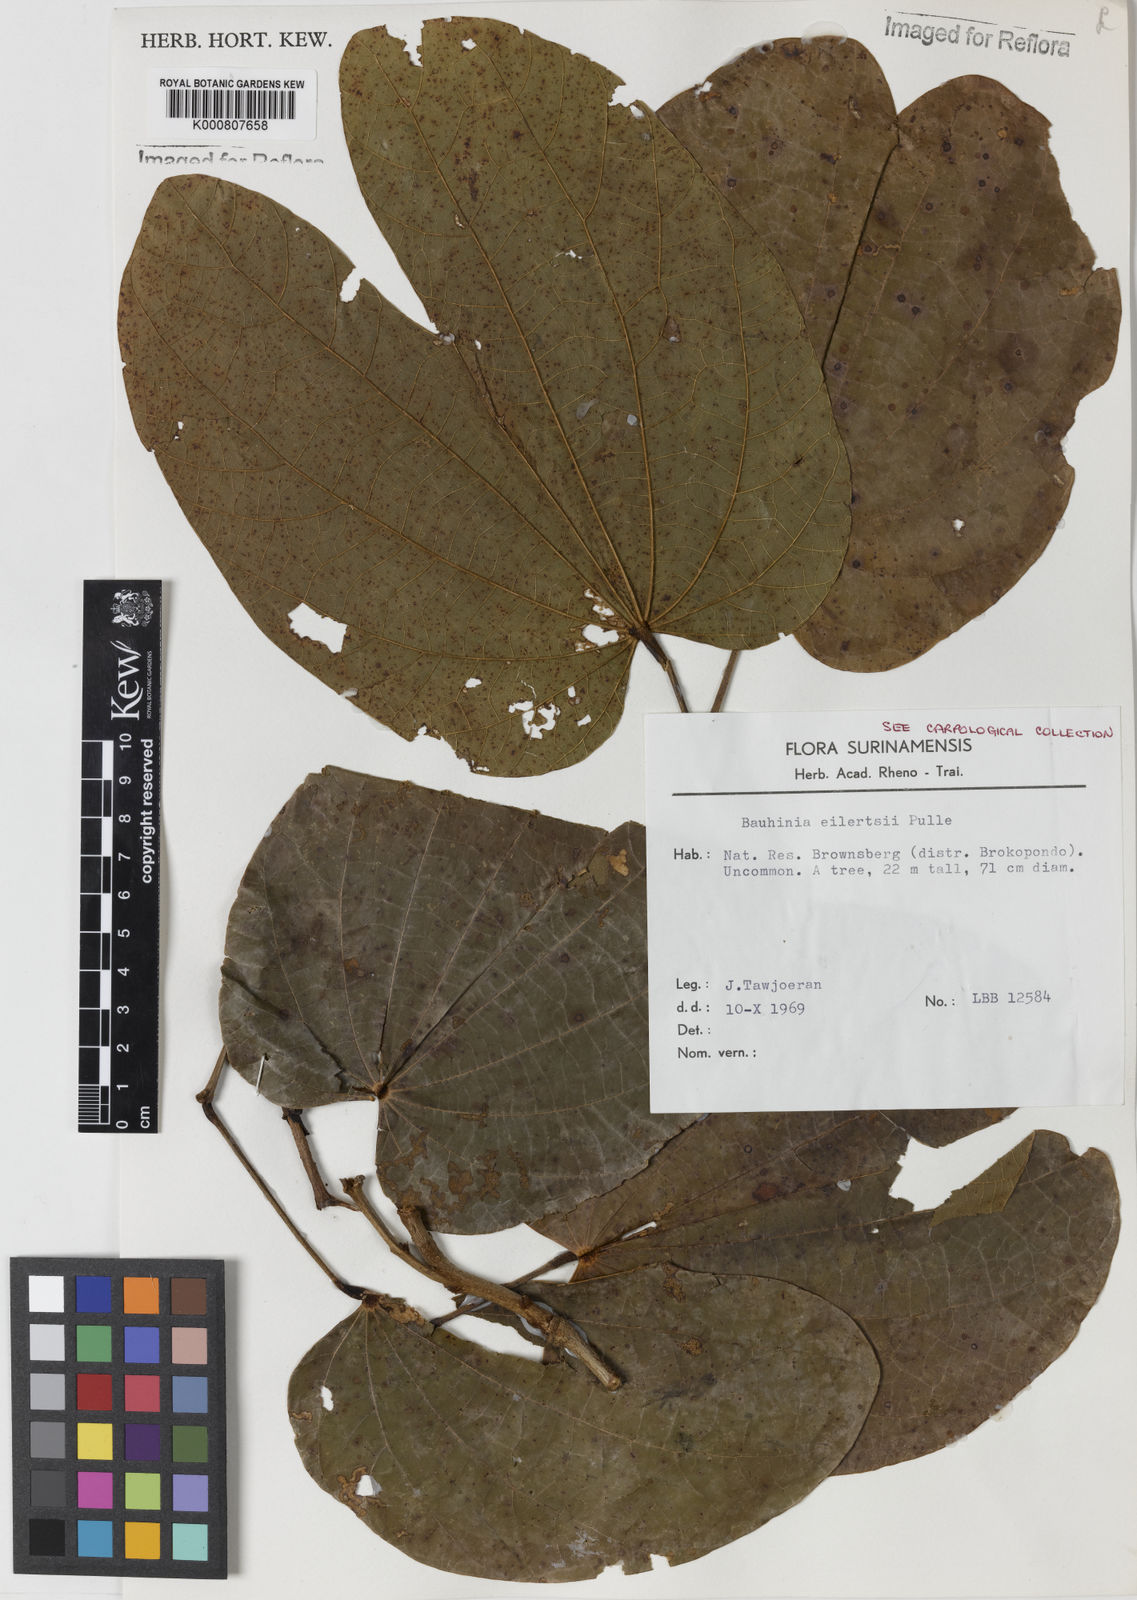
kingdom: Plantae
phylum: Tracheophyta
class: Magnoliopsida
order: Fabales
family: Fabaceae
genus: Bauhinia
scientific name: Bauhinia eilertsii
